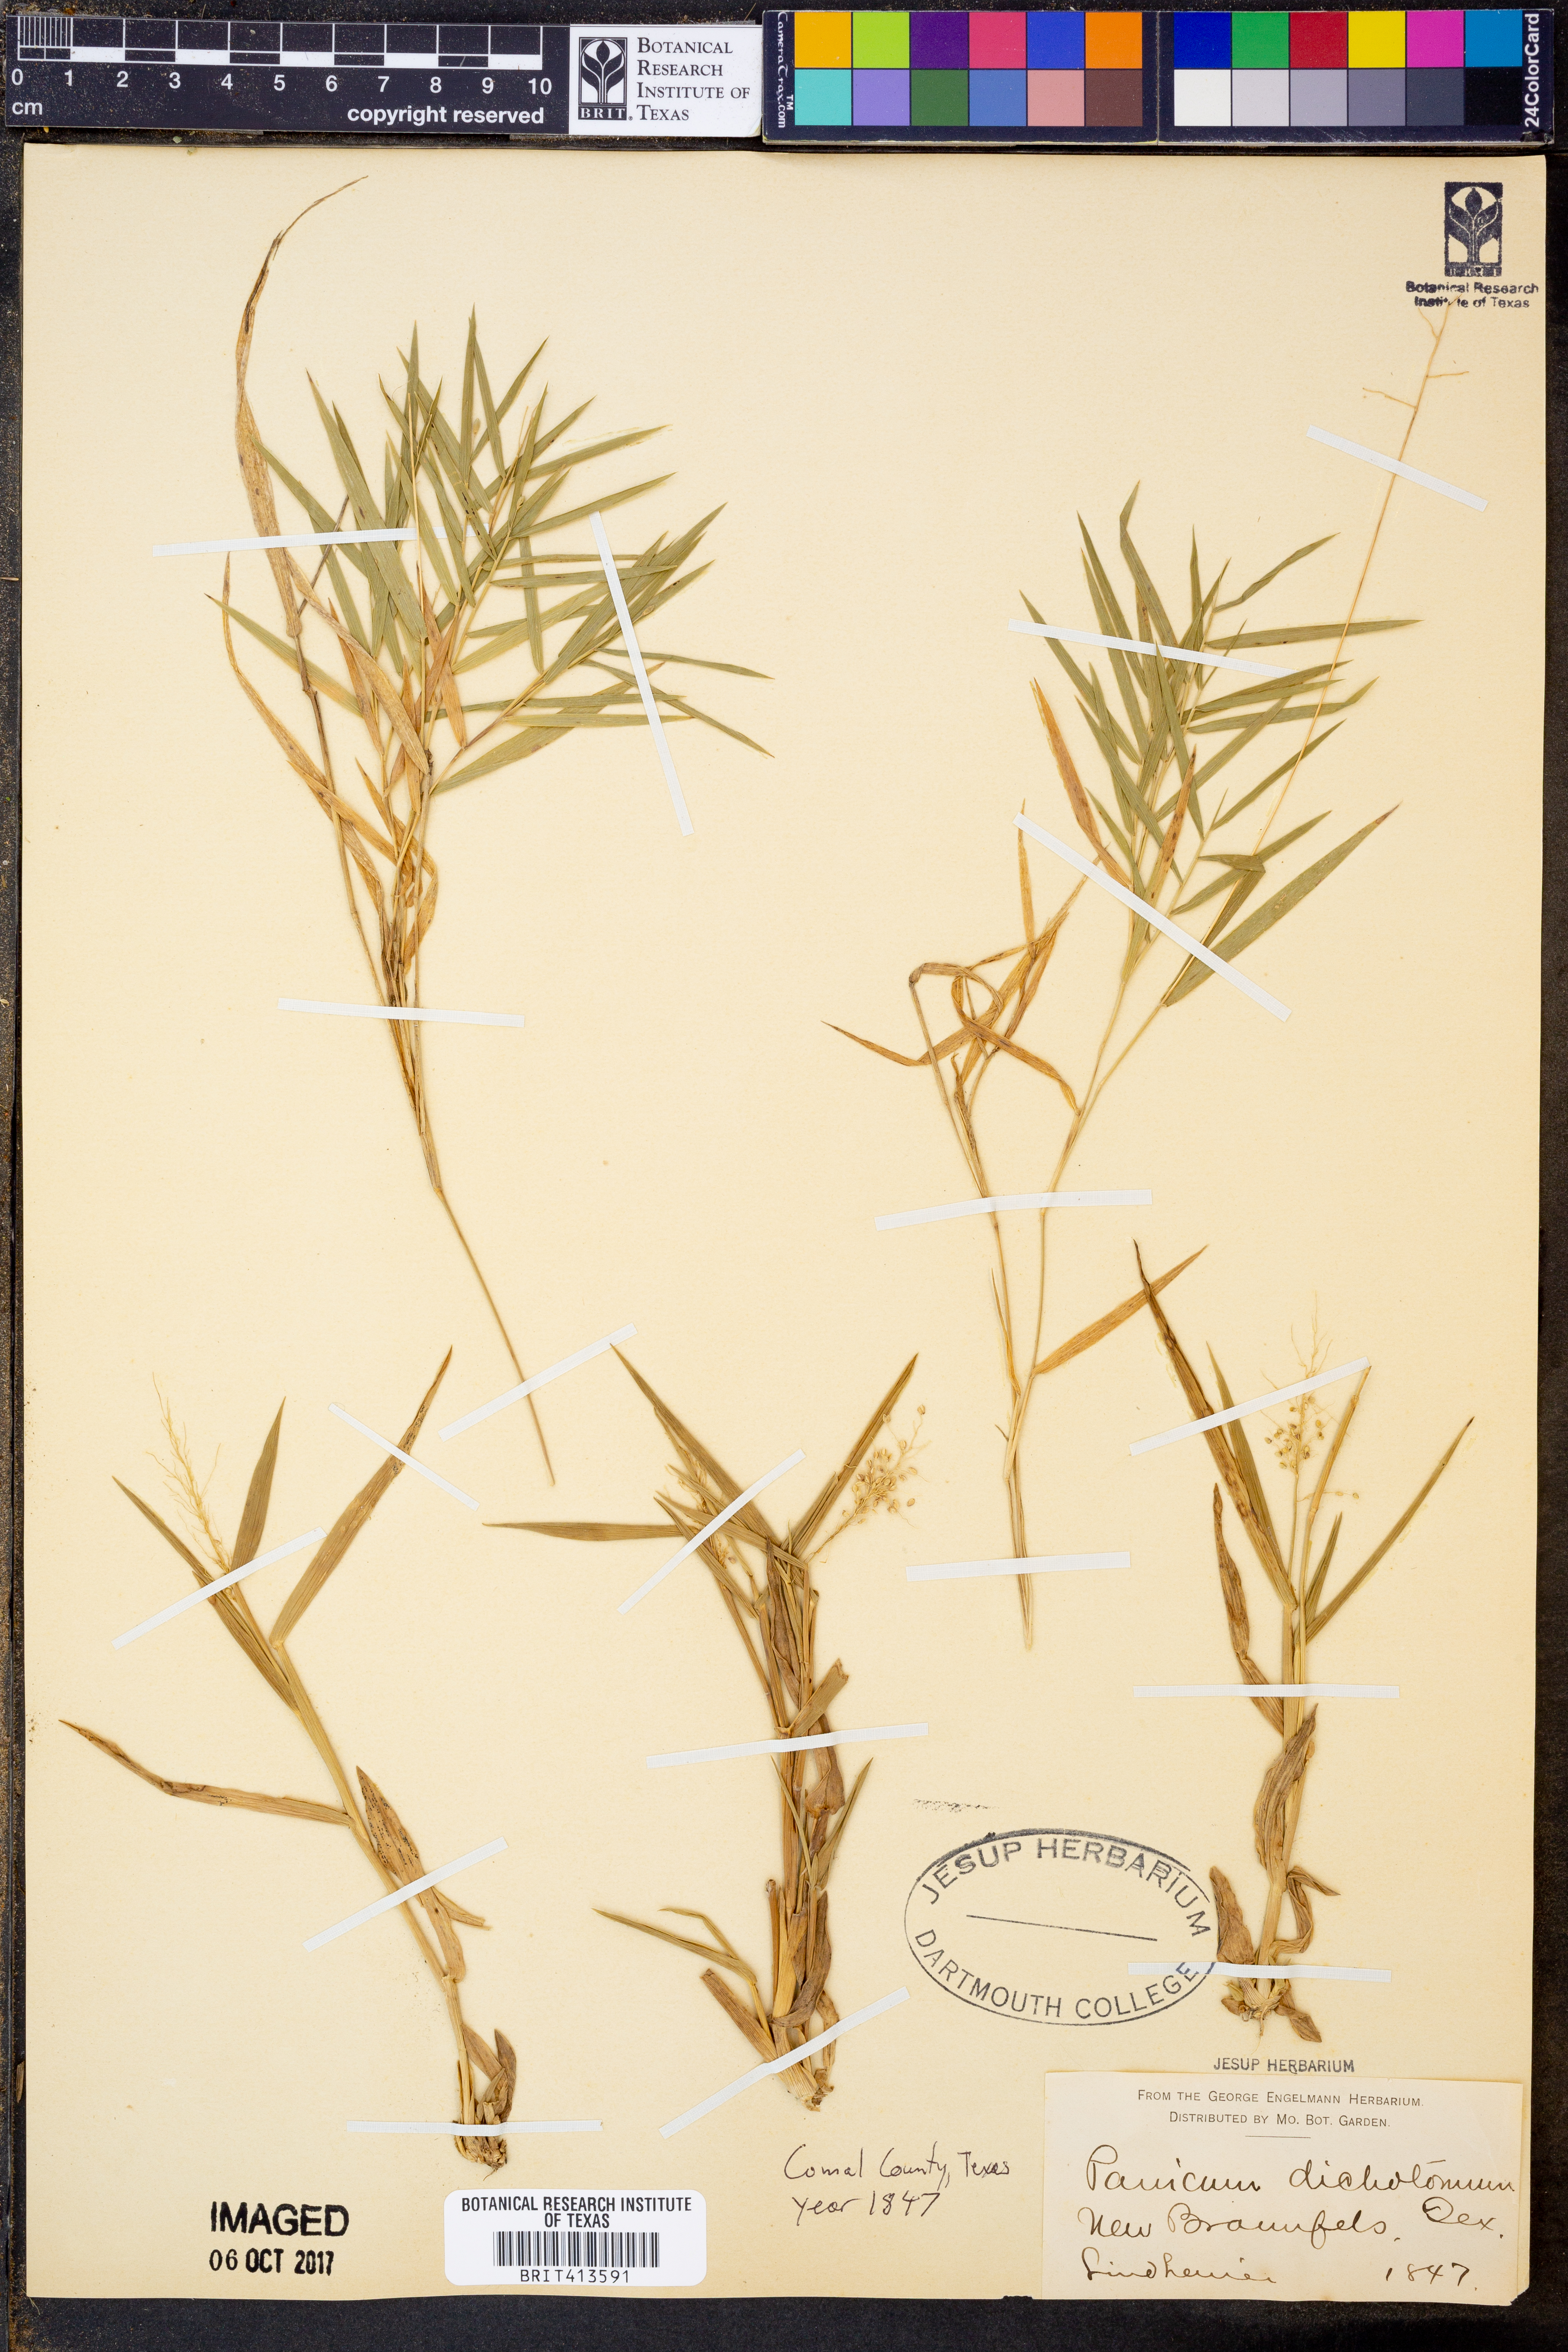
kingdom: Plantae
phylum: Tracheophyta
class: Liliopsida
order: Poales
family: Poaceae
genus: Dichanthelium
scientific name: Dichanthelium dichotomum
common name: Cypress panicgrass
